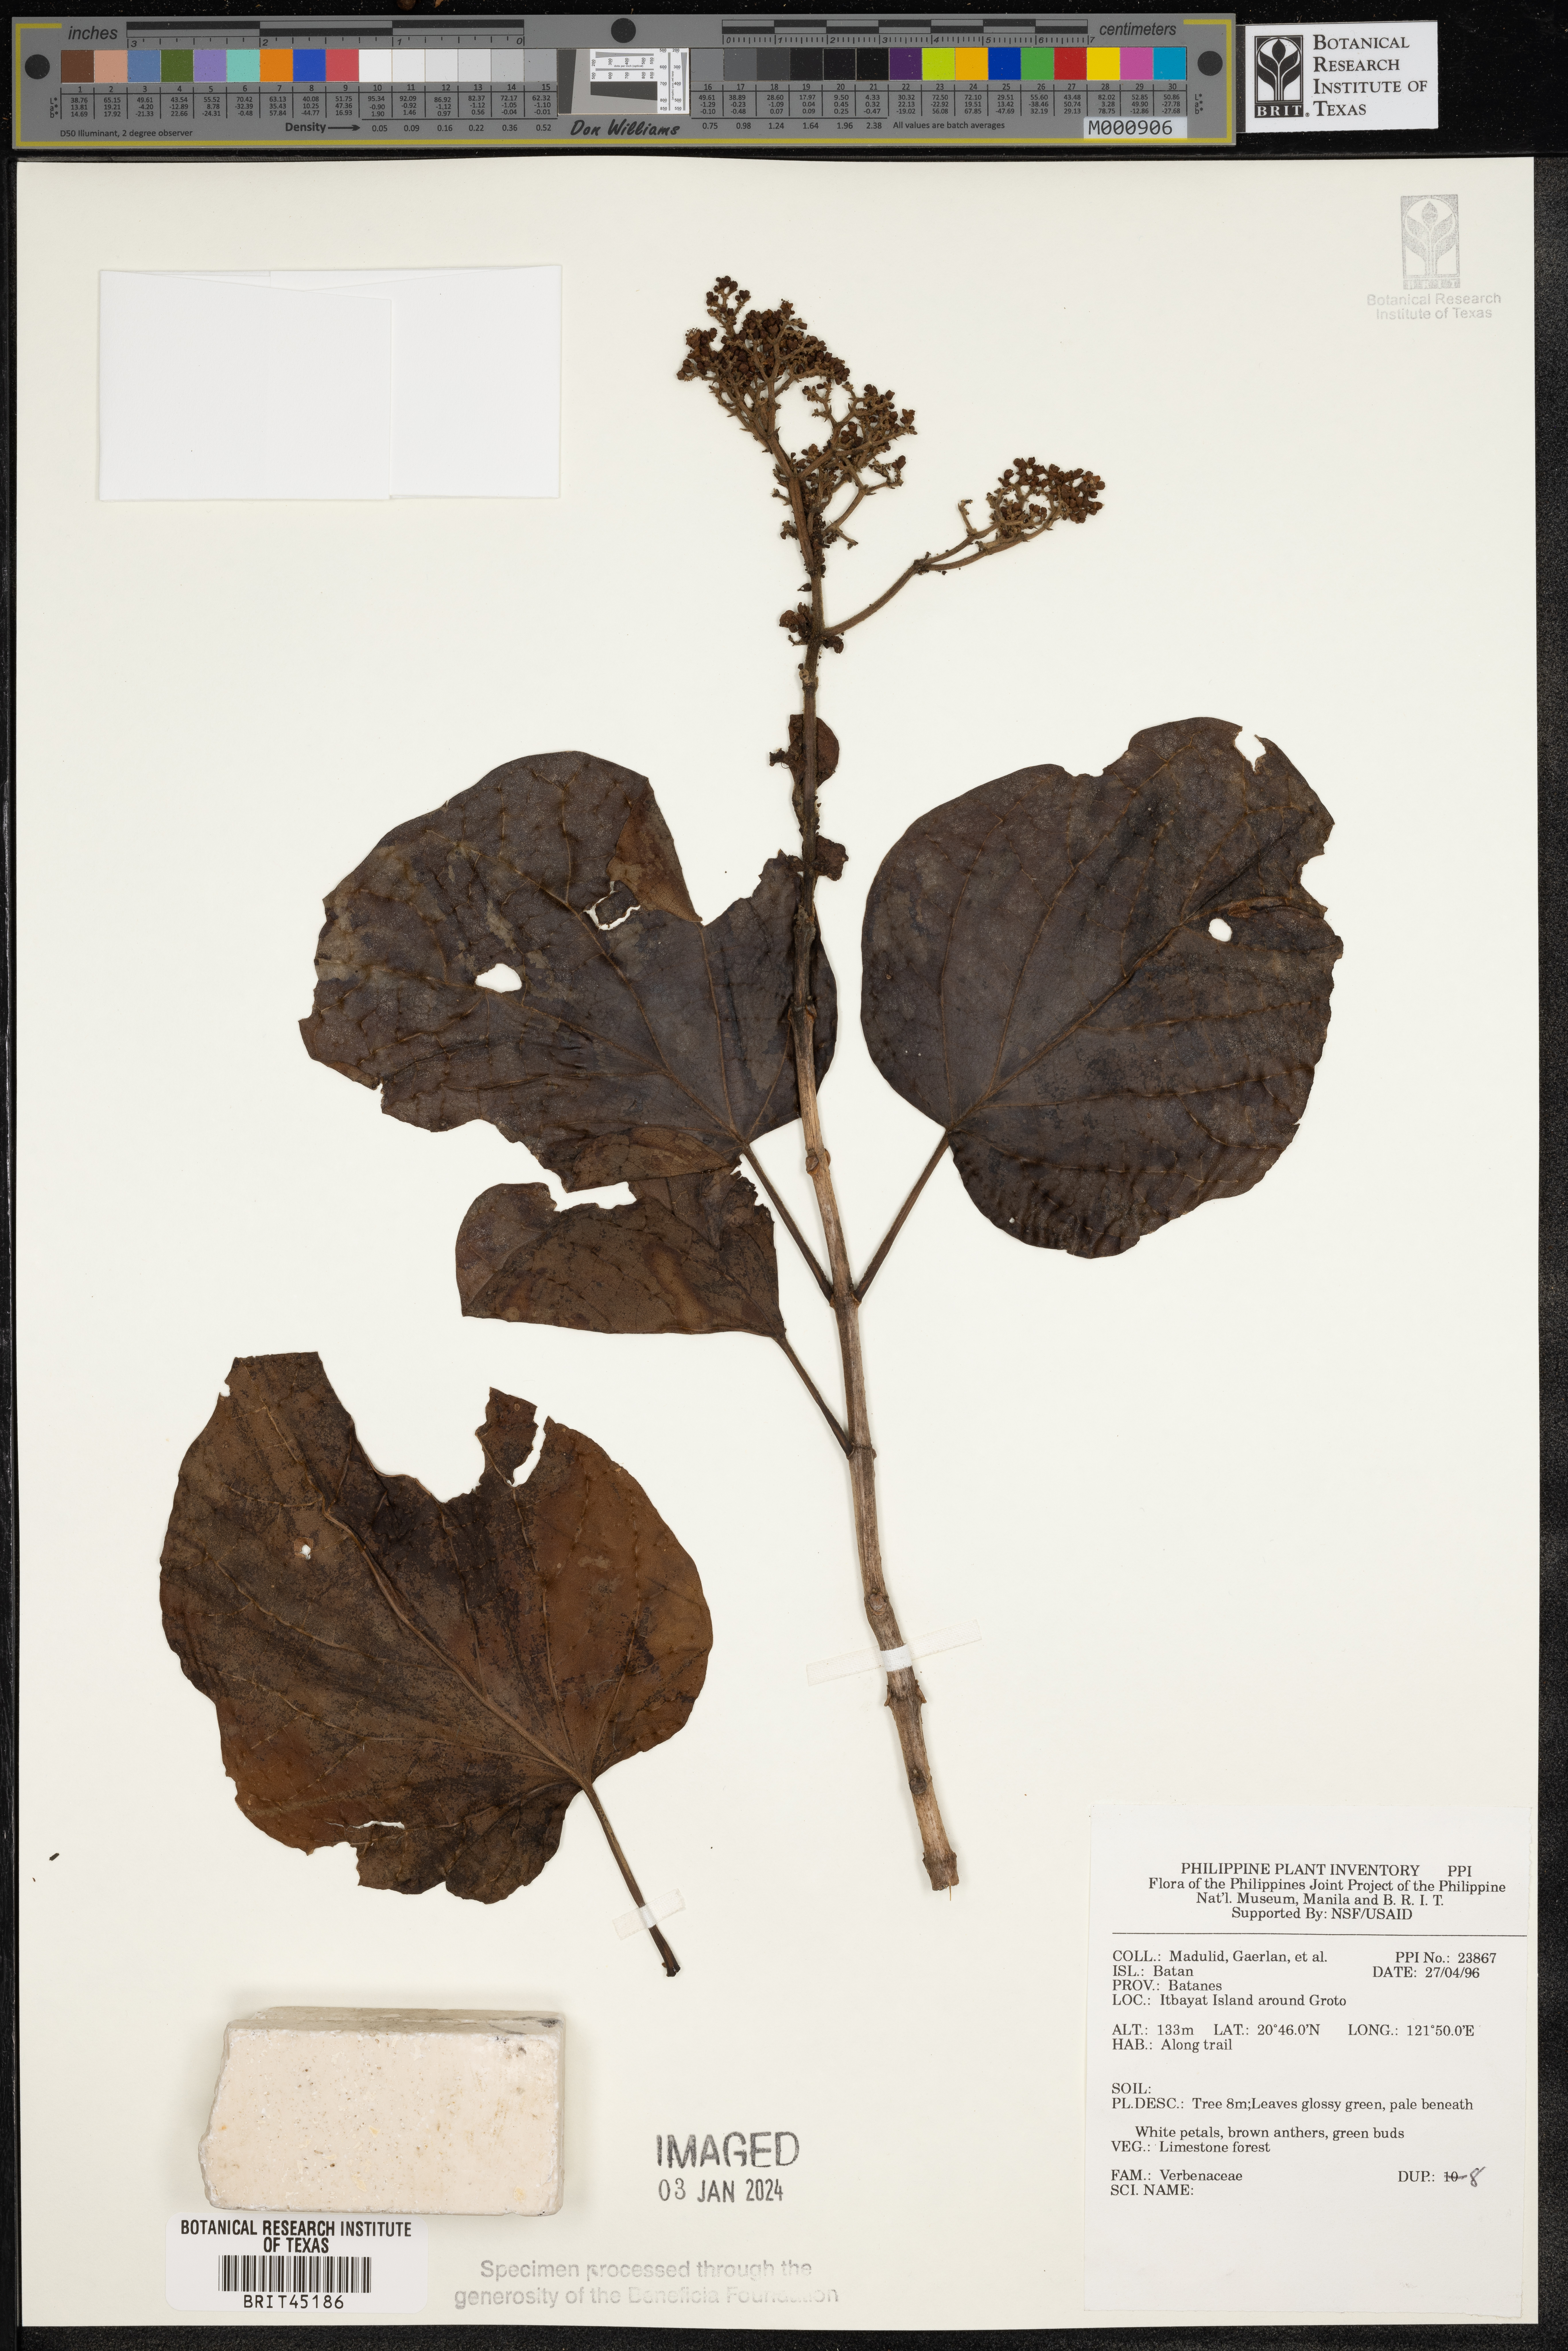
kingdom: Plantae
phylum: Tracheophyta
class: Magnoliopsida
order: Lamiales
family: Verbenaceae
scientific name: Verbenaceae
